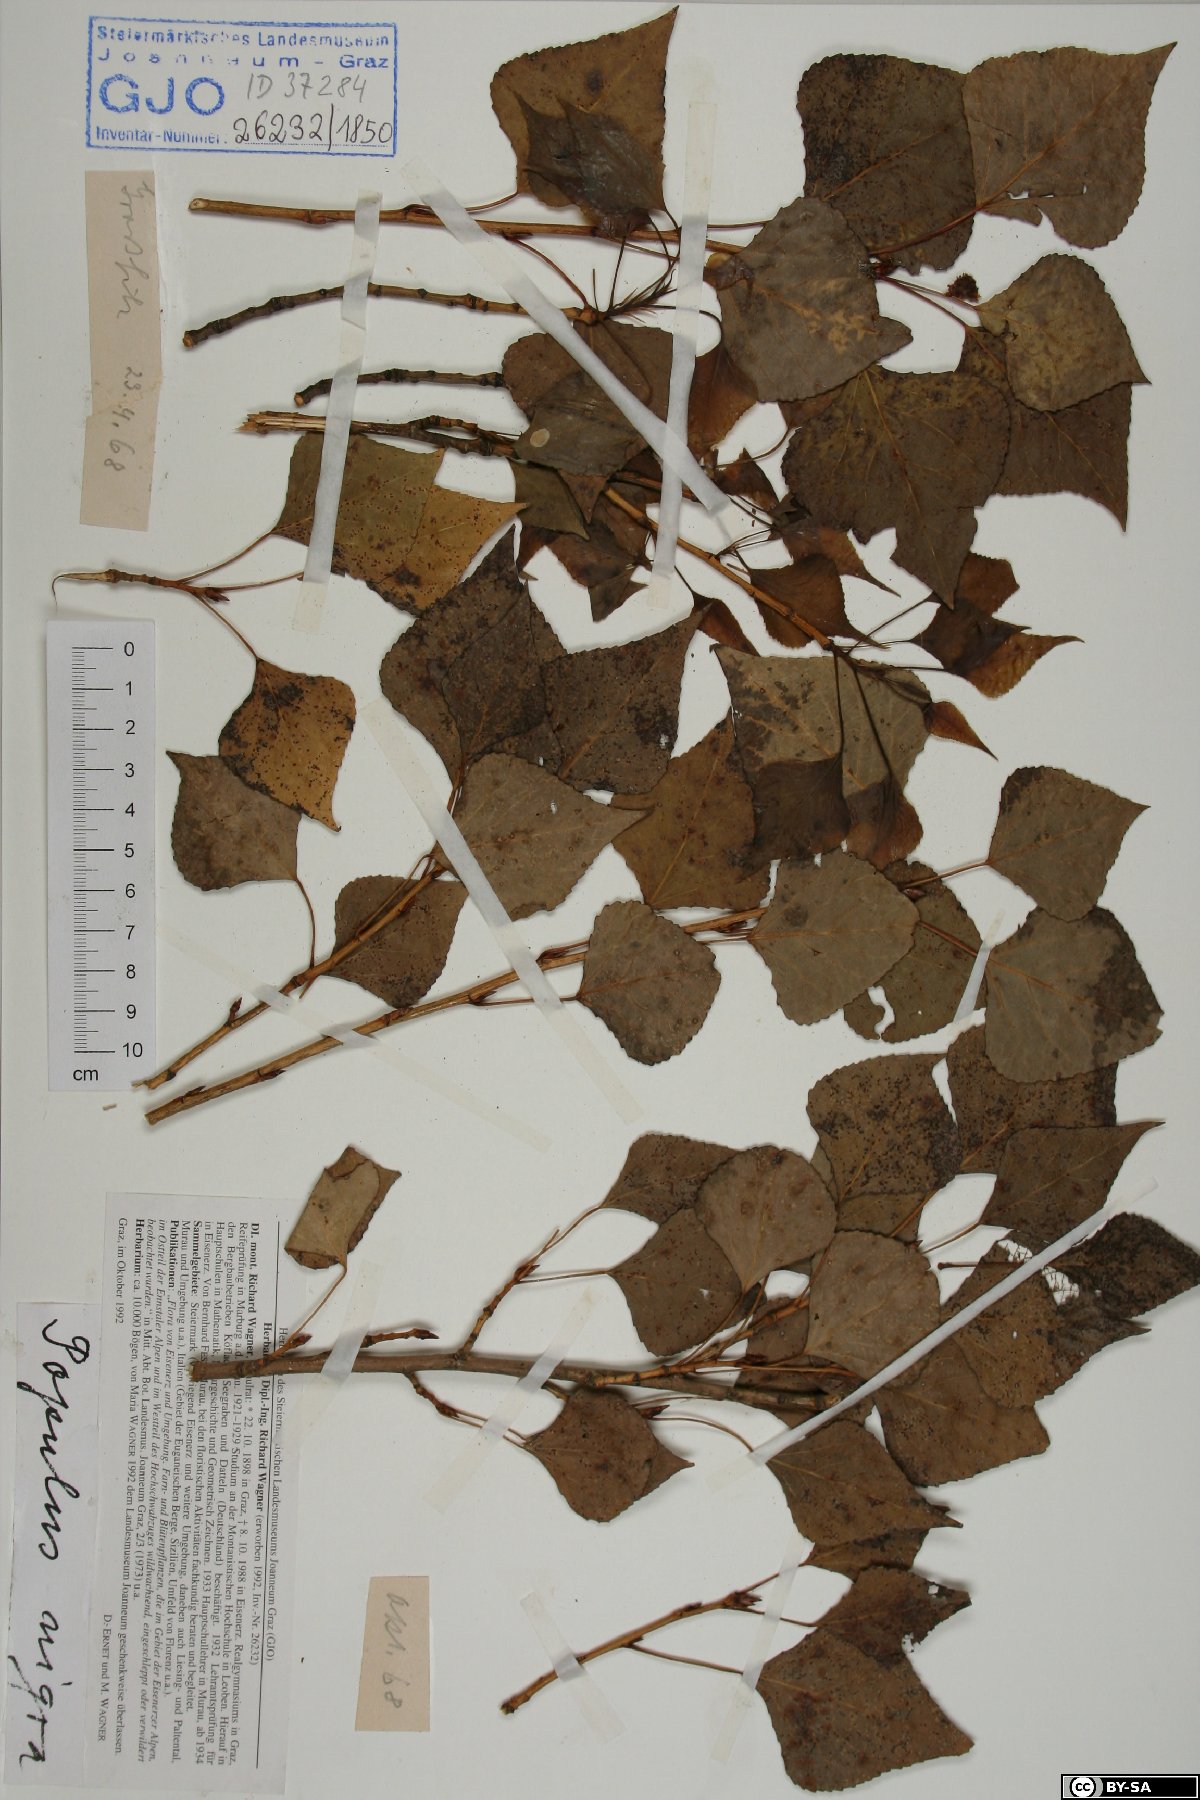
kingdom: Plantae
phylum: Tracheophyta
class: Magnoliopsida
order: Malpighiales
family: Salicaceae
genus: Populus
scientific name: Populus nigra
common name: Black poplar
